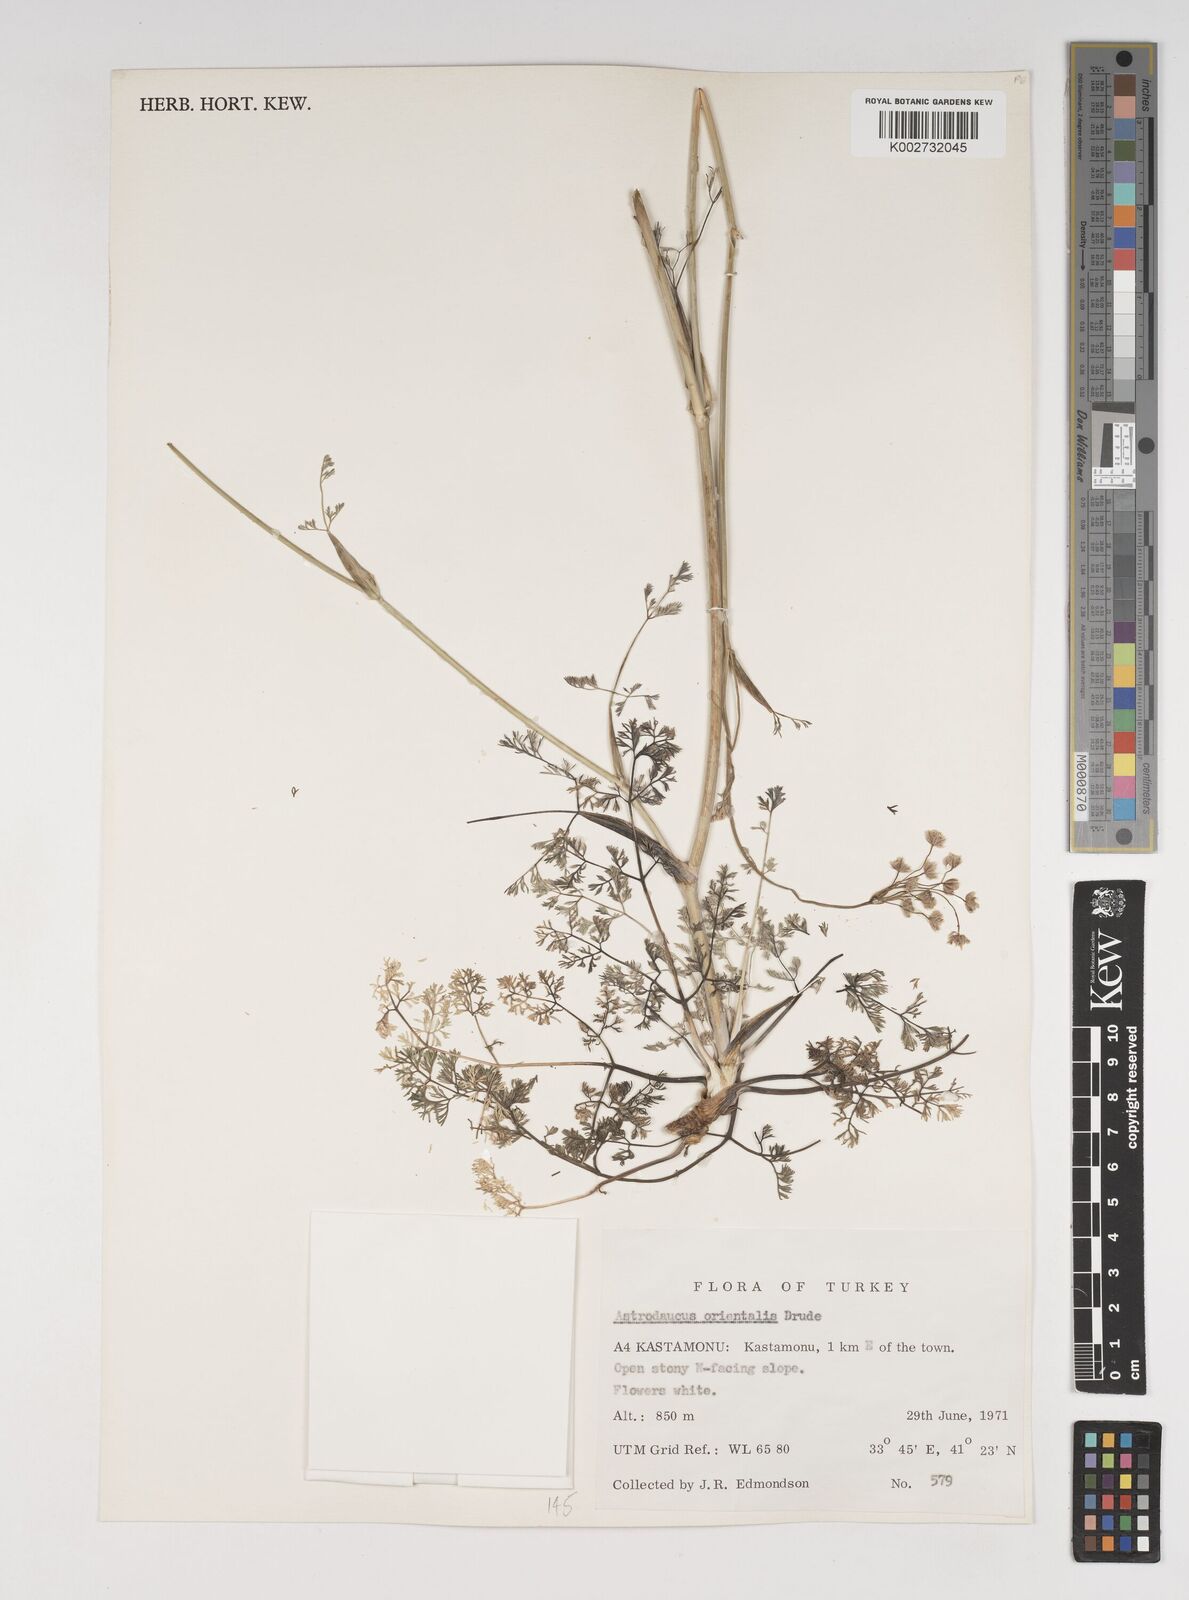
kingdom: Plantae
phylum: Tracheophyta
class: Magnoliopsida
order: Apiales
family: Apiaceae
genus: Astrodaucus
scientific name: Astrodaucus
